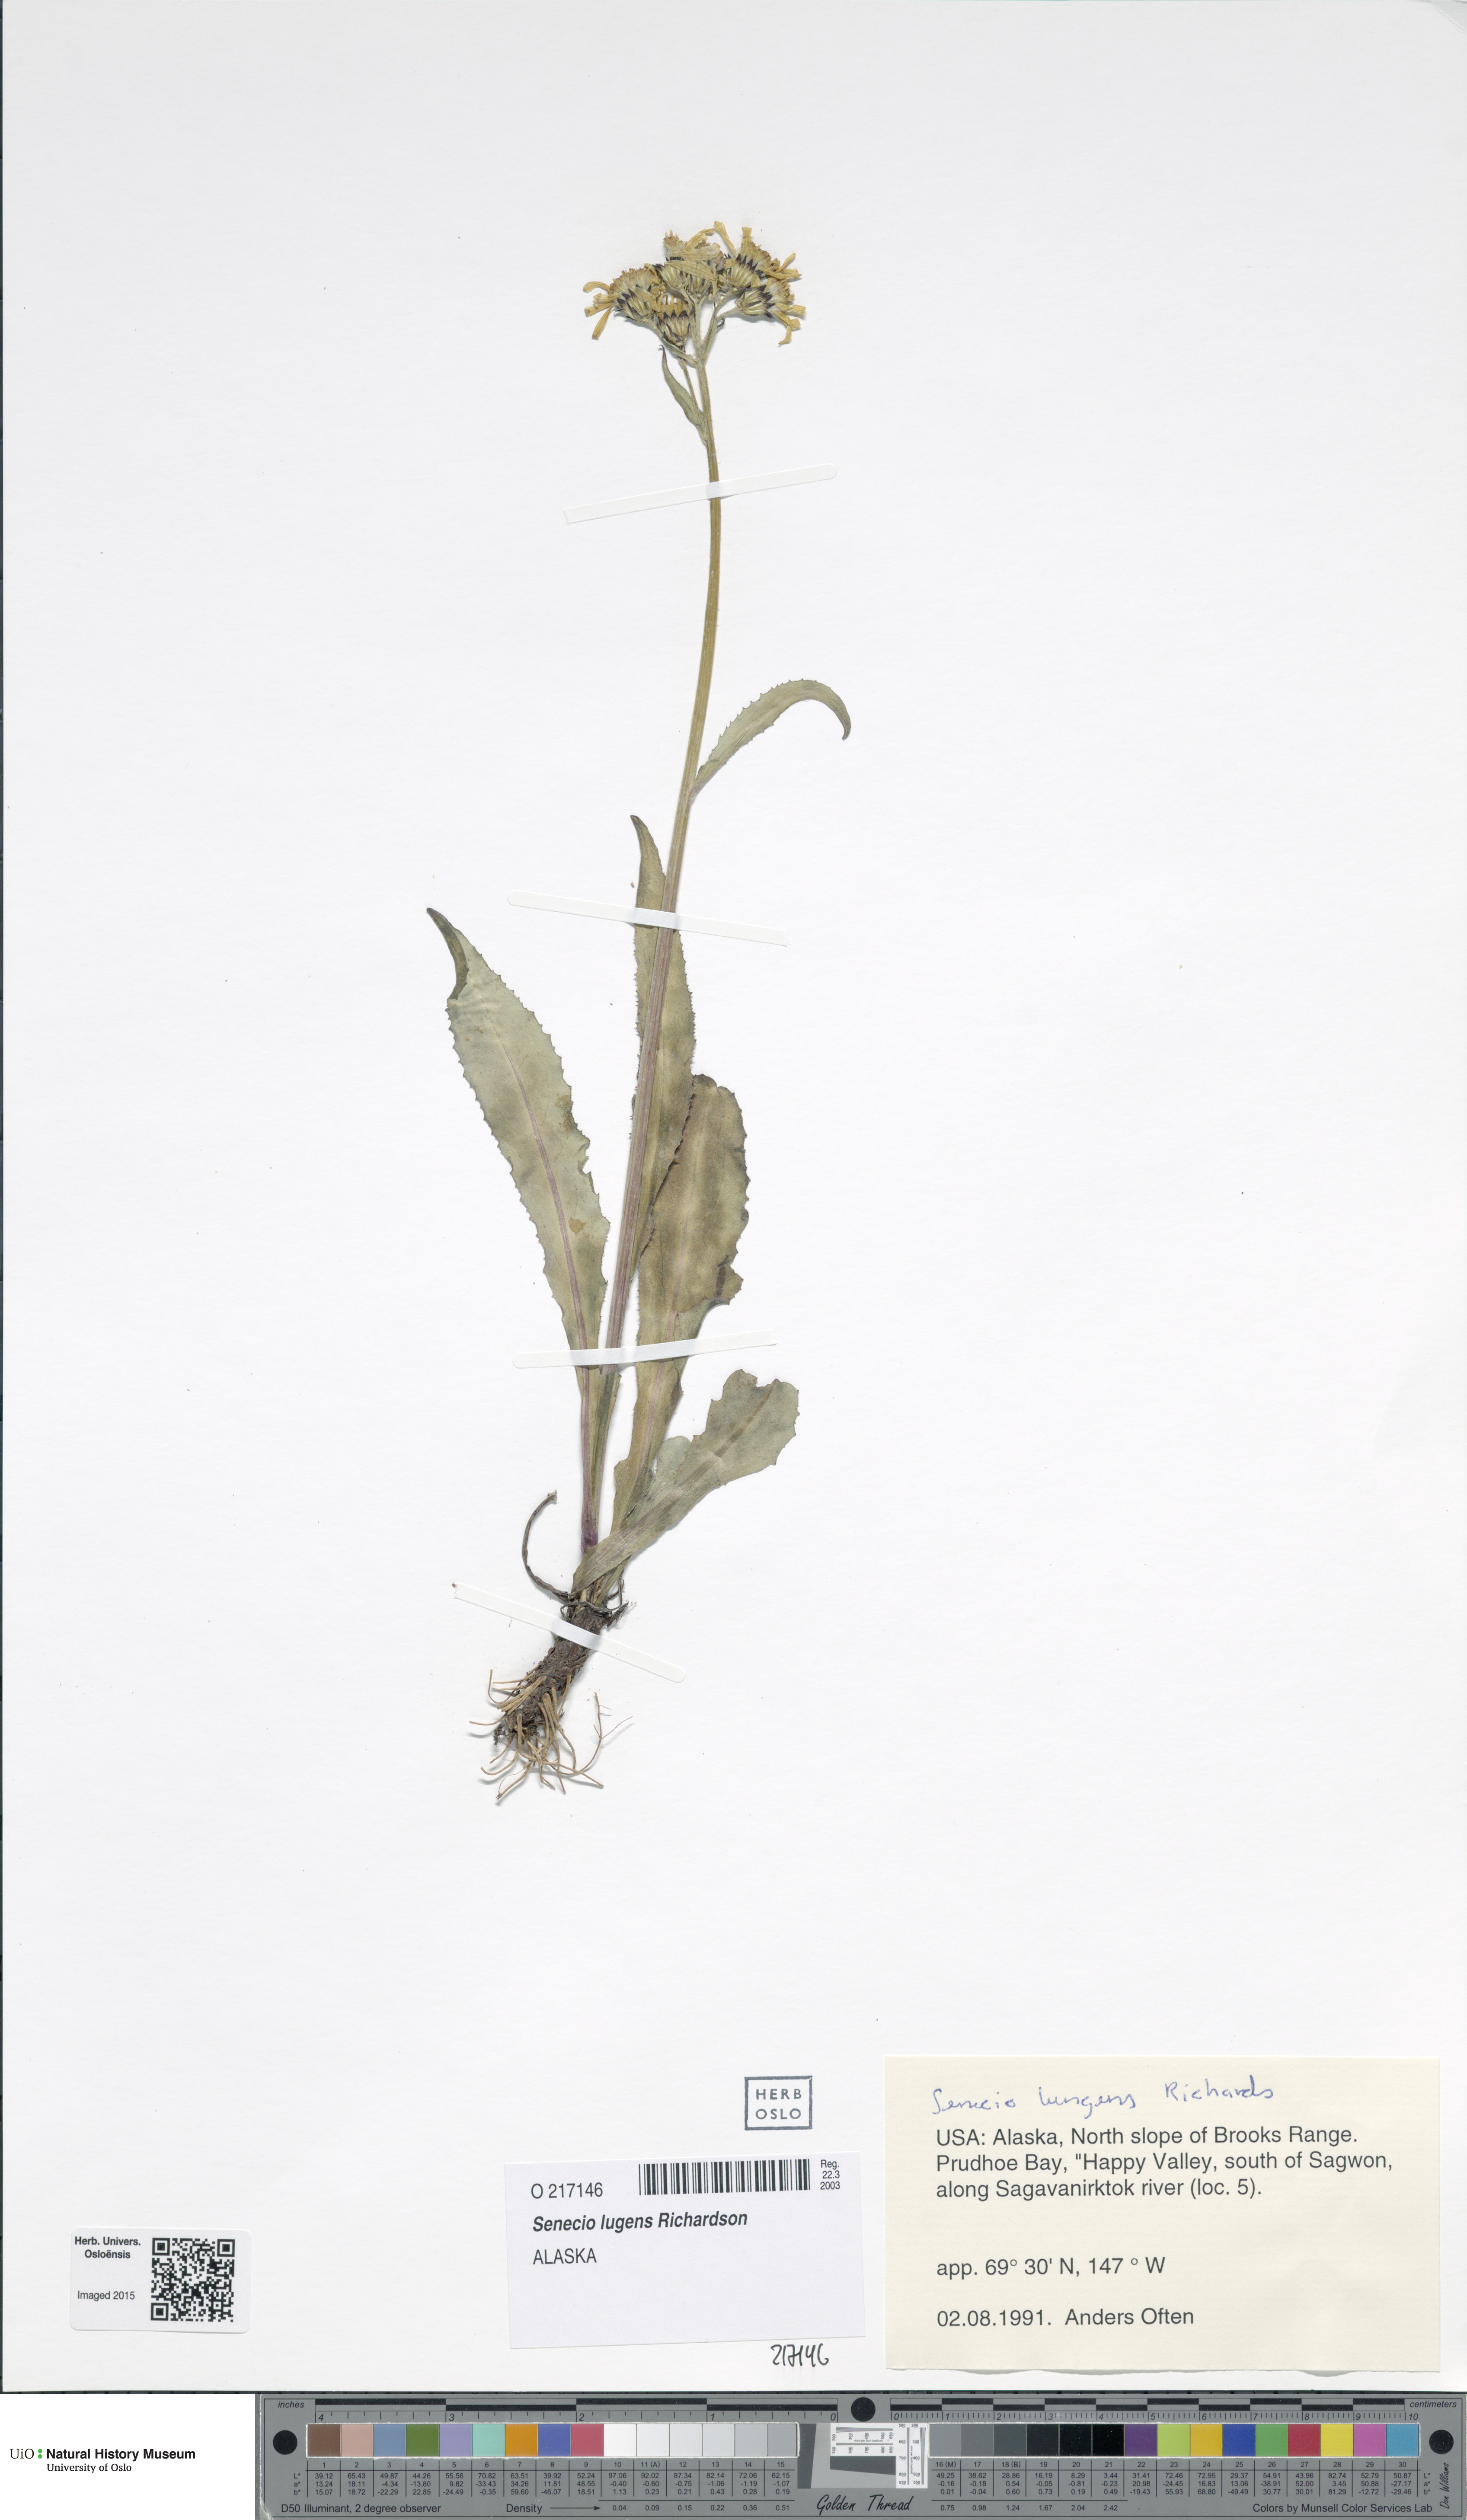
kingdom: Plantae
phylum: Tracheophyta
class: Magnoliopsida
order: Asterales
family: Asteraceae
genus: Senecio
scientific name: Senecio lugens
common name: Black-tip groundsel
